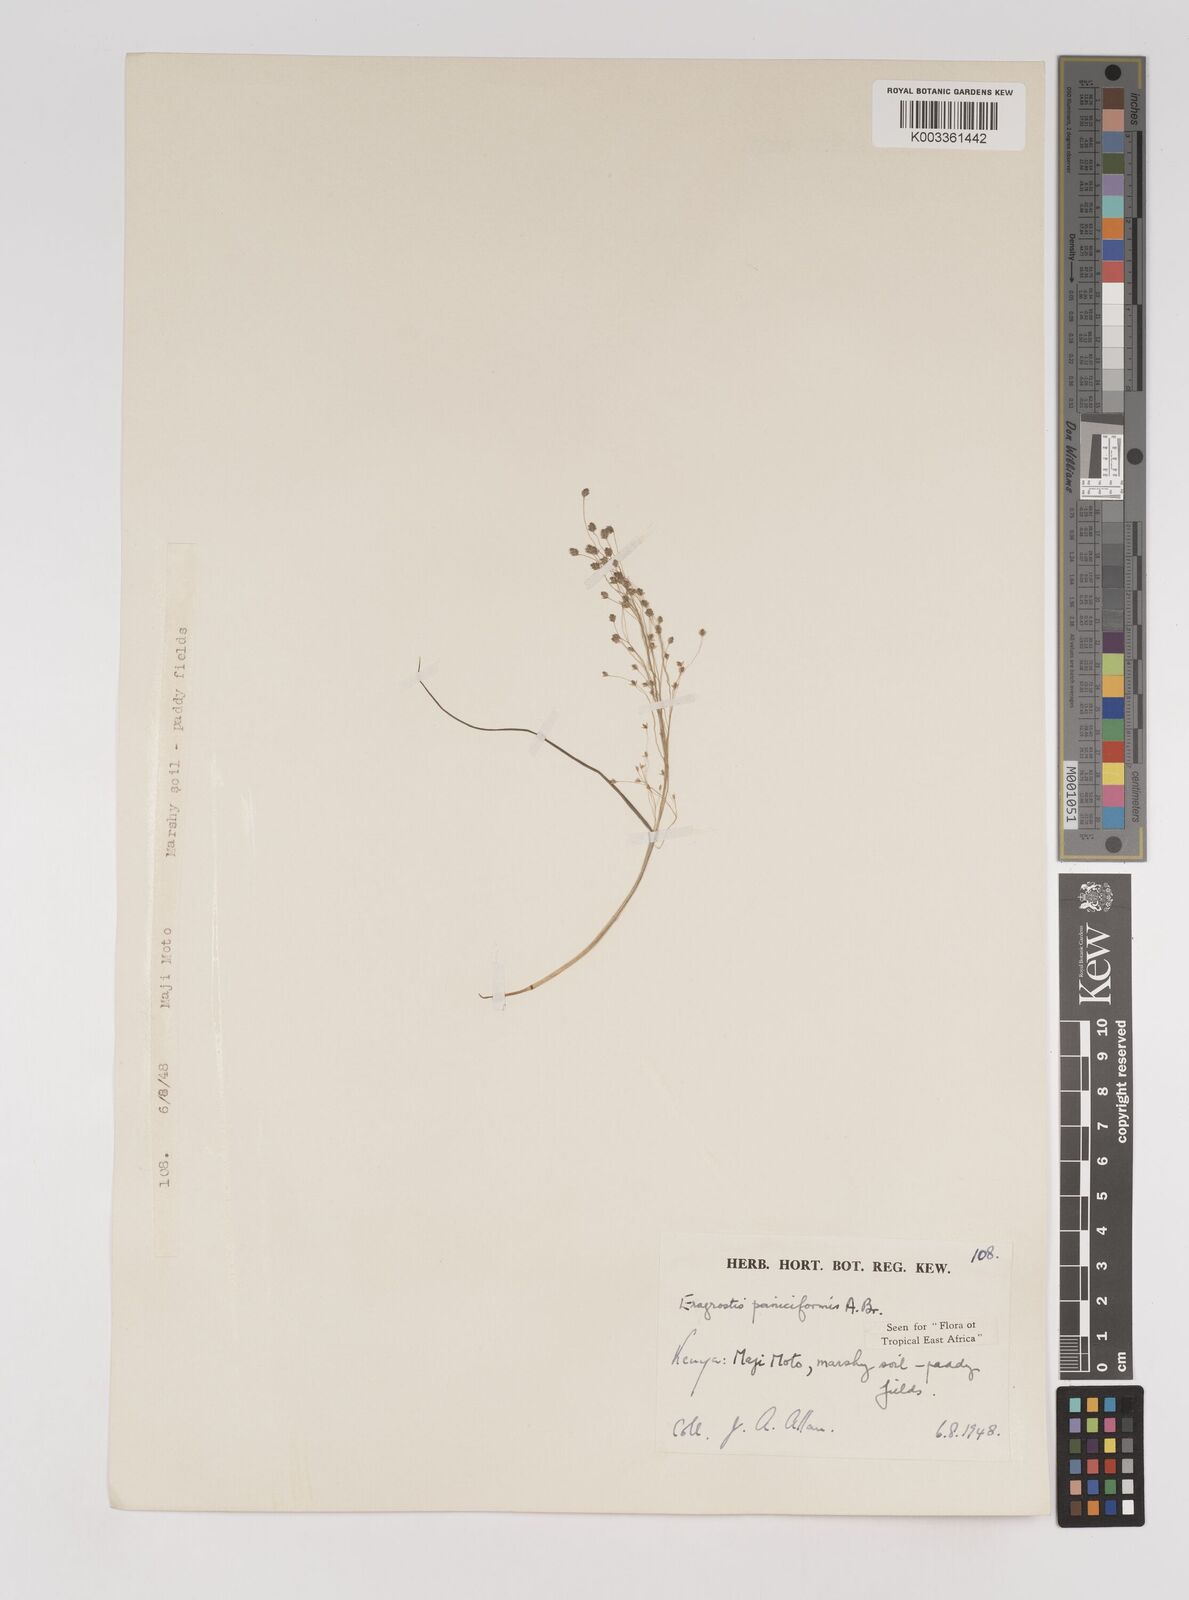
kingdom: Plantae
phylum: Tracheophyta
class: Liliopsida
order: Poales
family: Poaceae
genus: Eragrostis
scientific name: Eragrostis paniciformis
